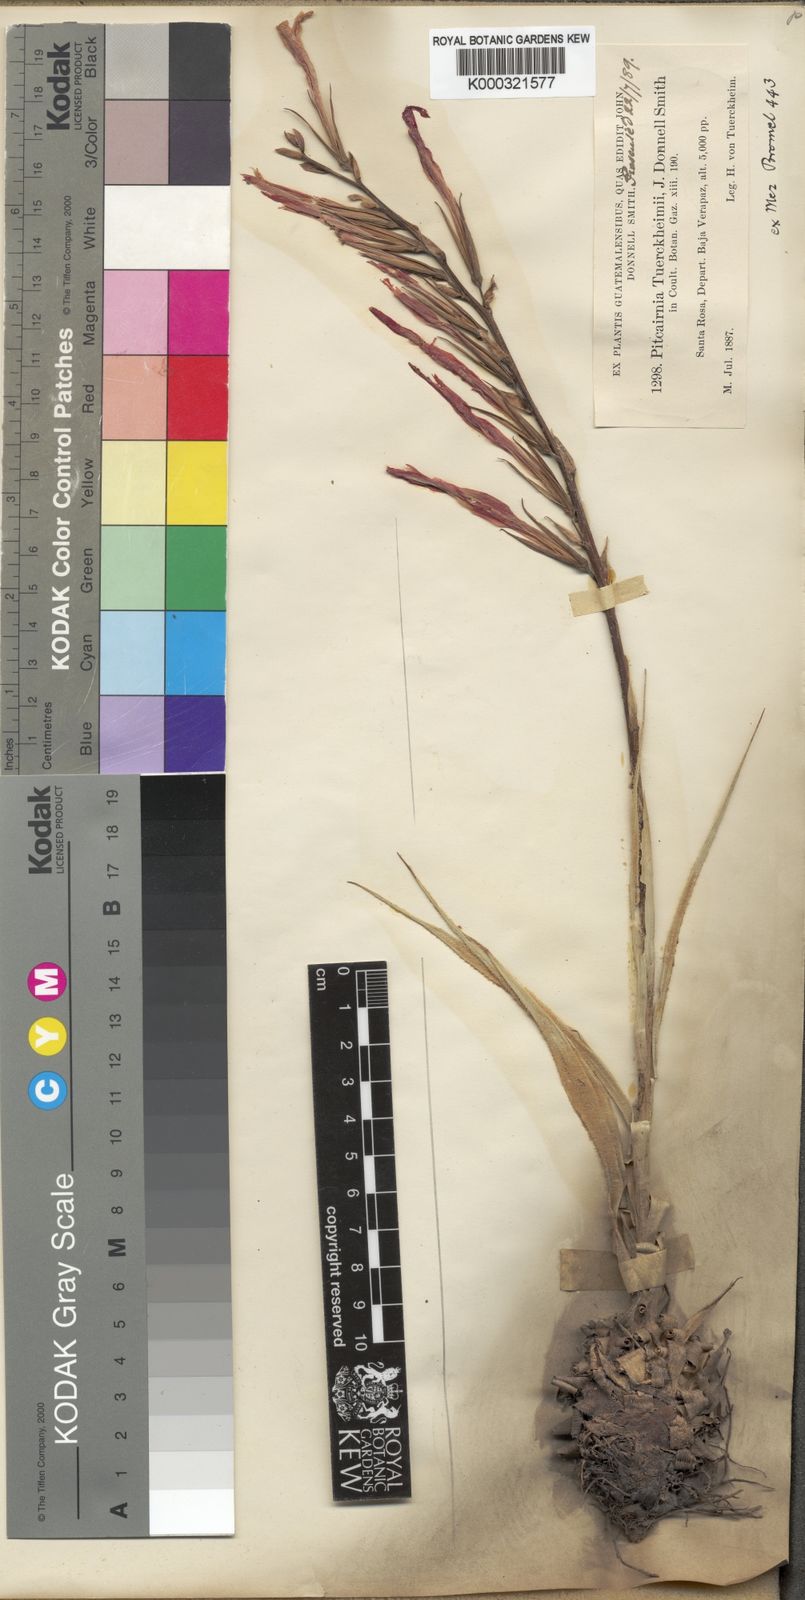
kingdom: Plantae
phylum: Tracheophyta
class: Liliopsida
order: Poales
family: Bromeliaceae
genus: Pitcairnia
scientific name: Pitcairnia tuerckheimii
